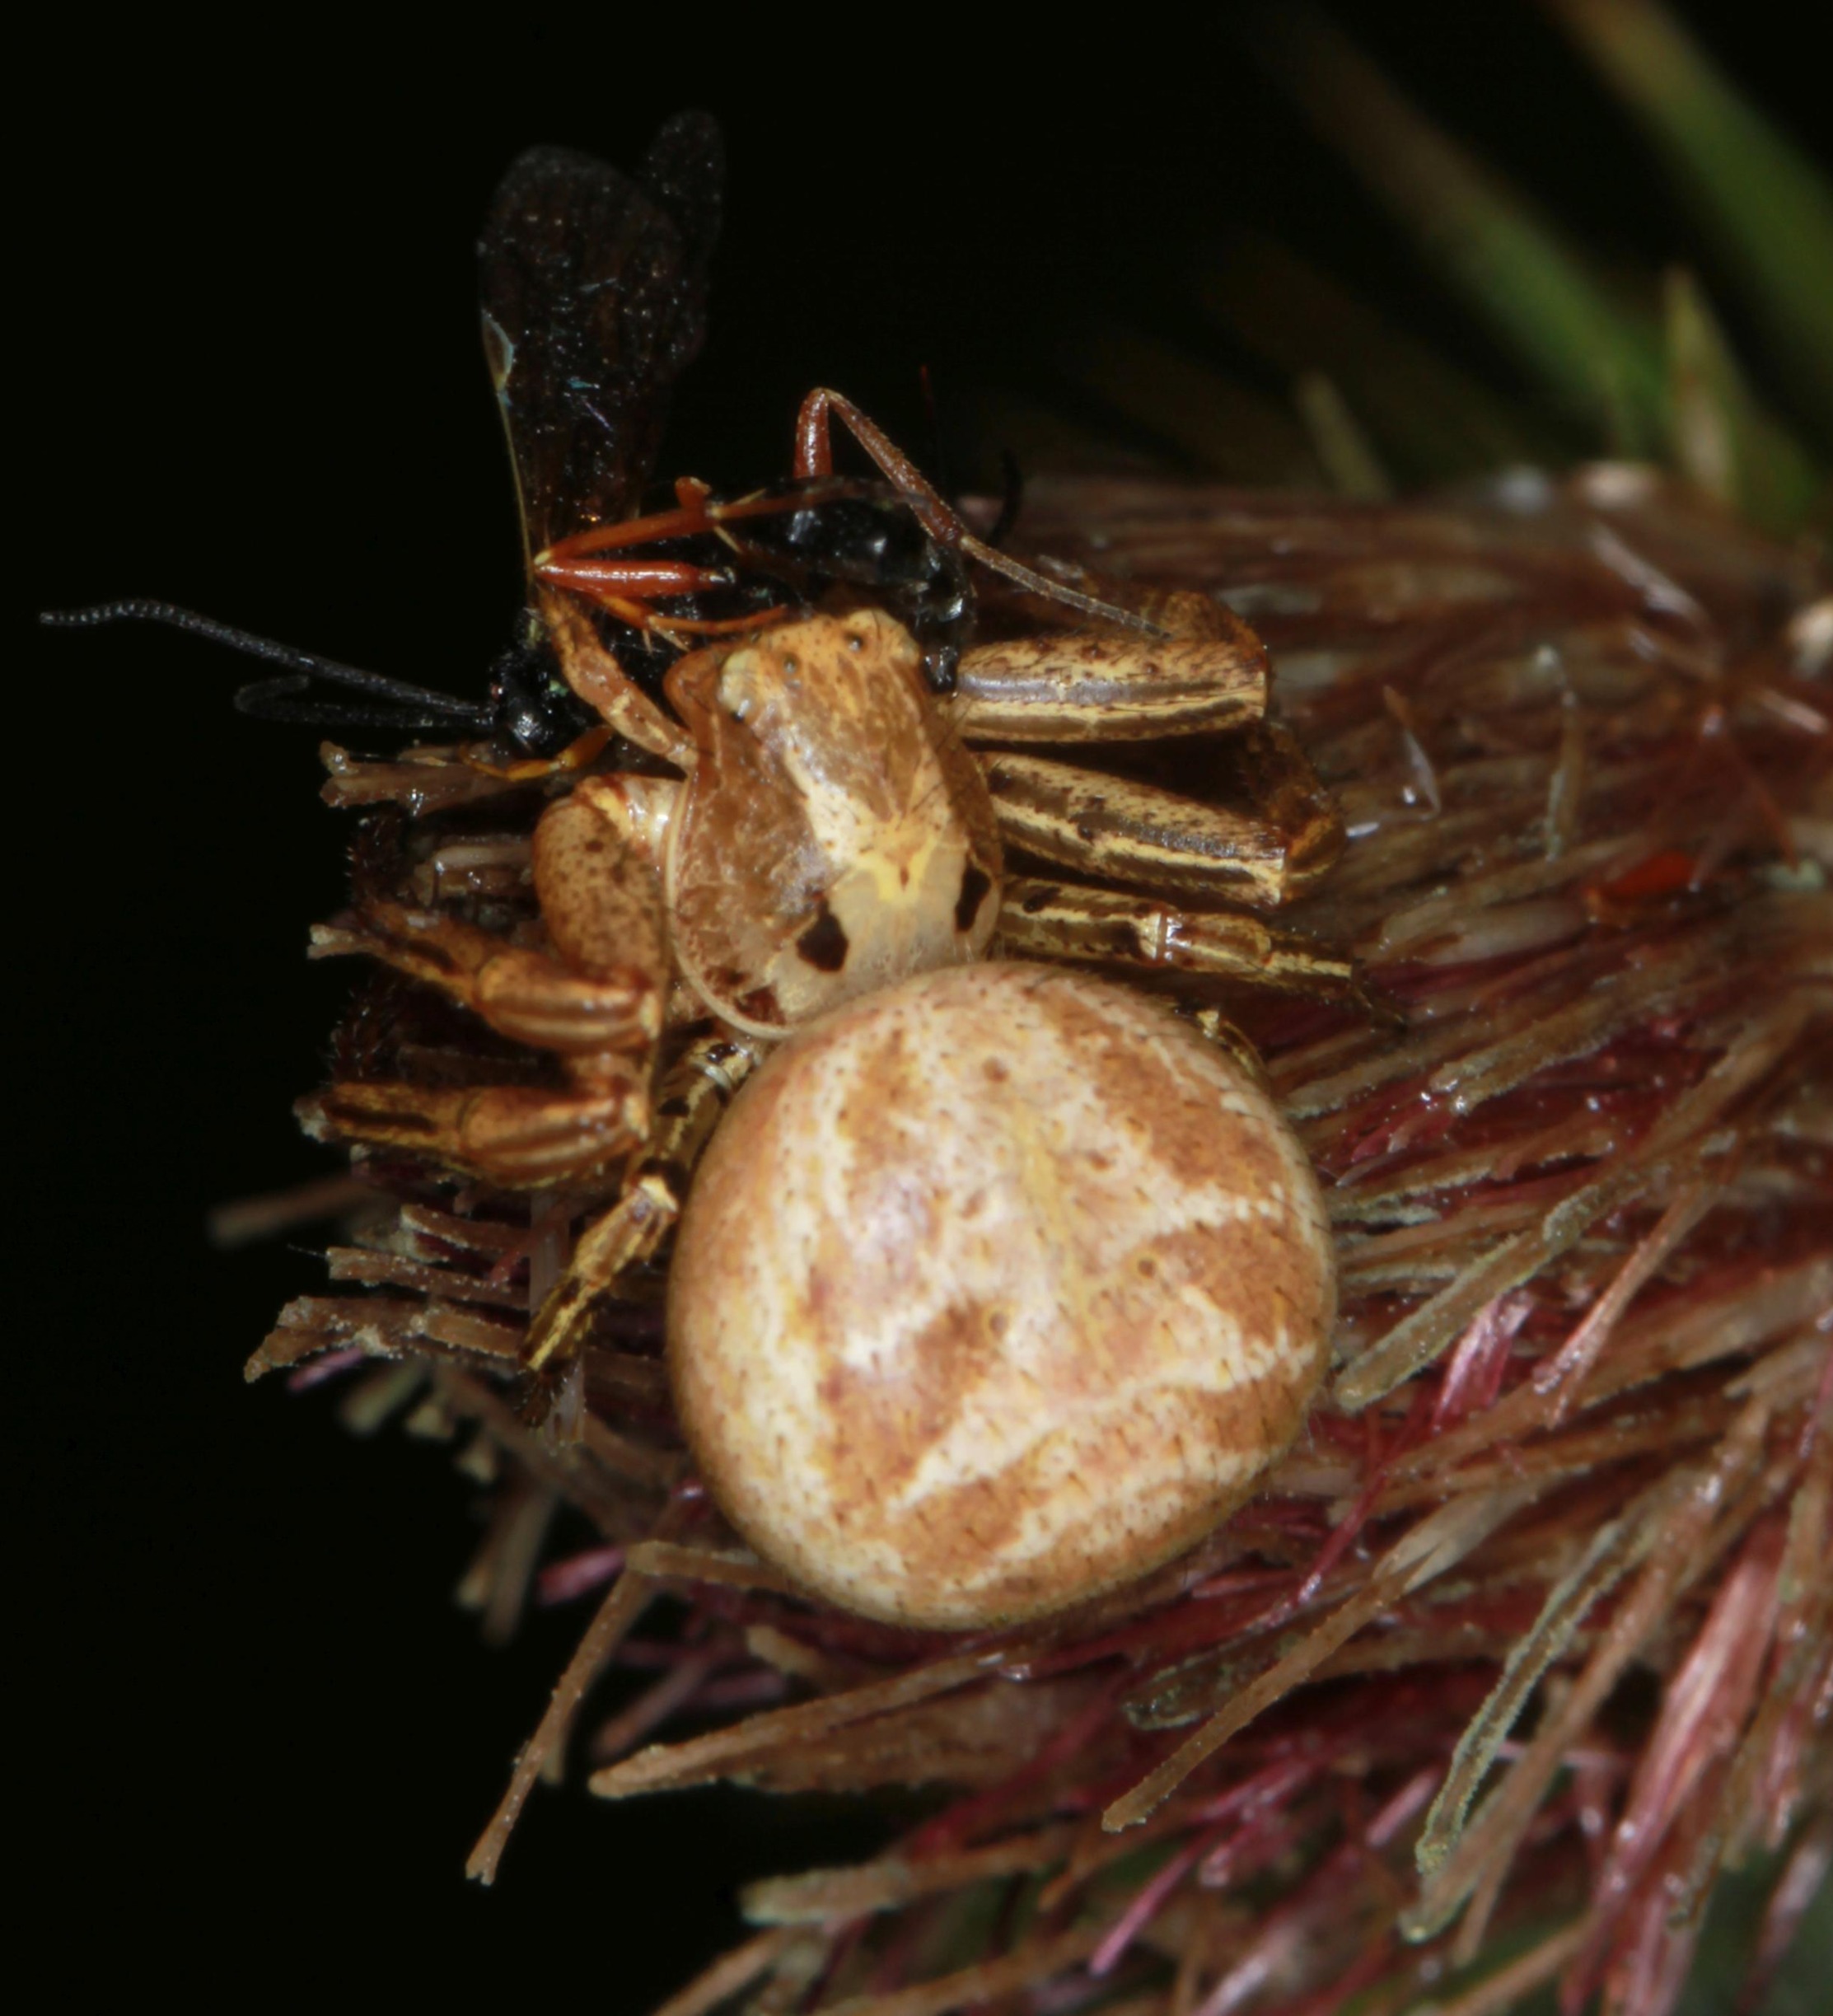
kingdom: Animalia
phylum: Arthropoda
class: Arachnida
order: Araneae
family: Thomisidae
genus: Xysticus
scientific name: Xysticus cristatus
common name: Almindelig krabbeedderkop
